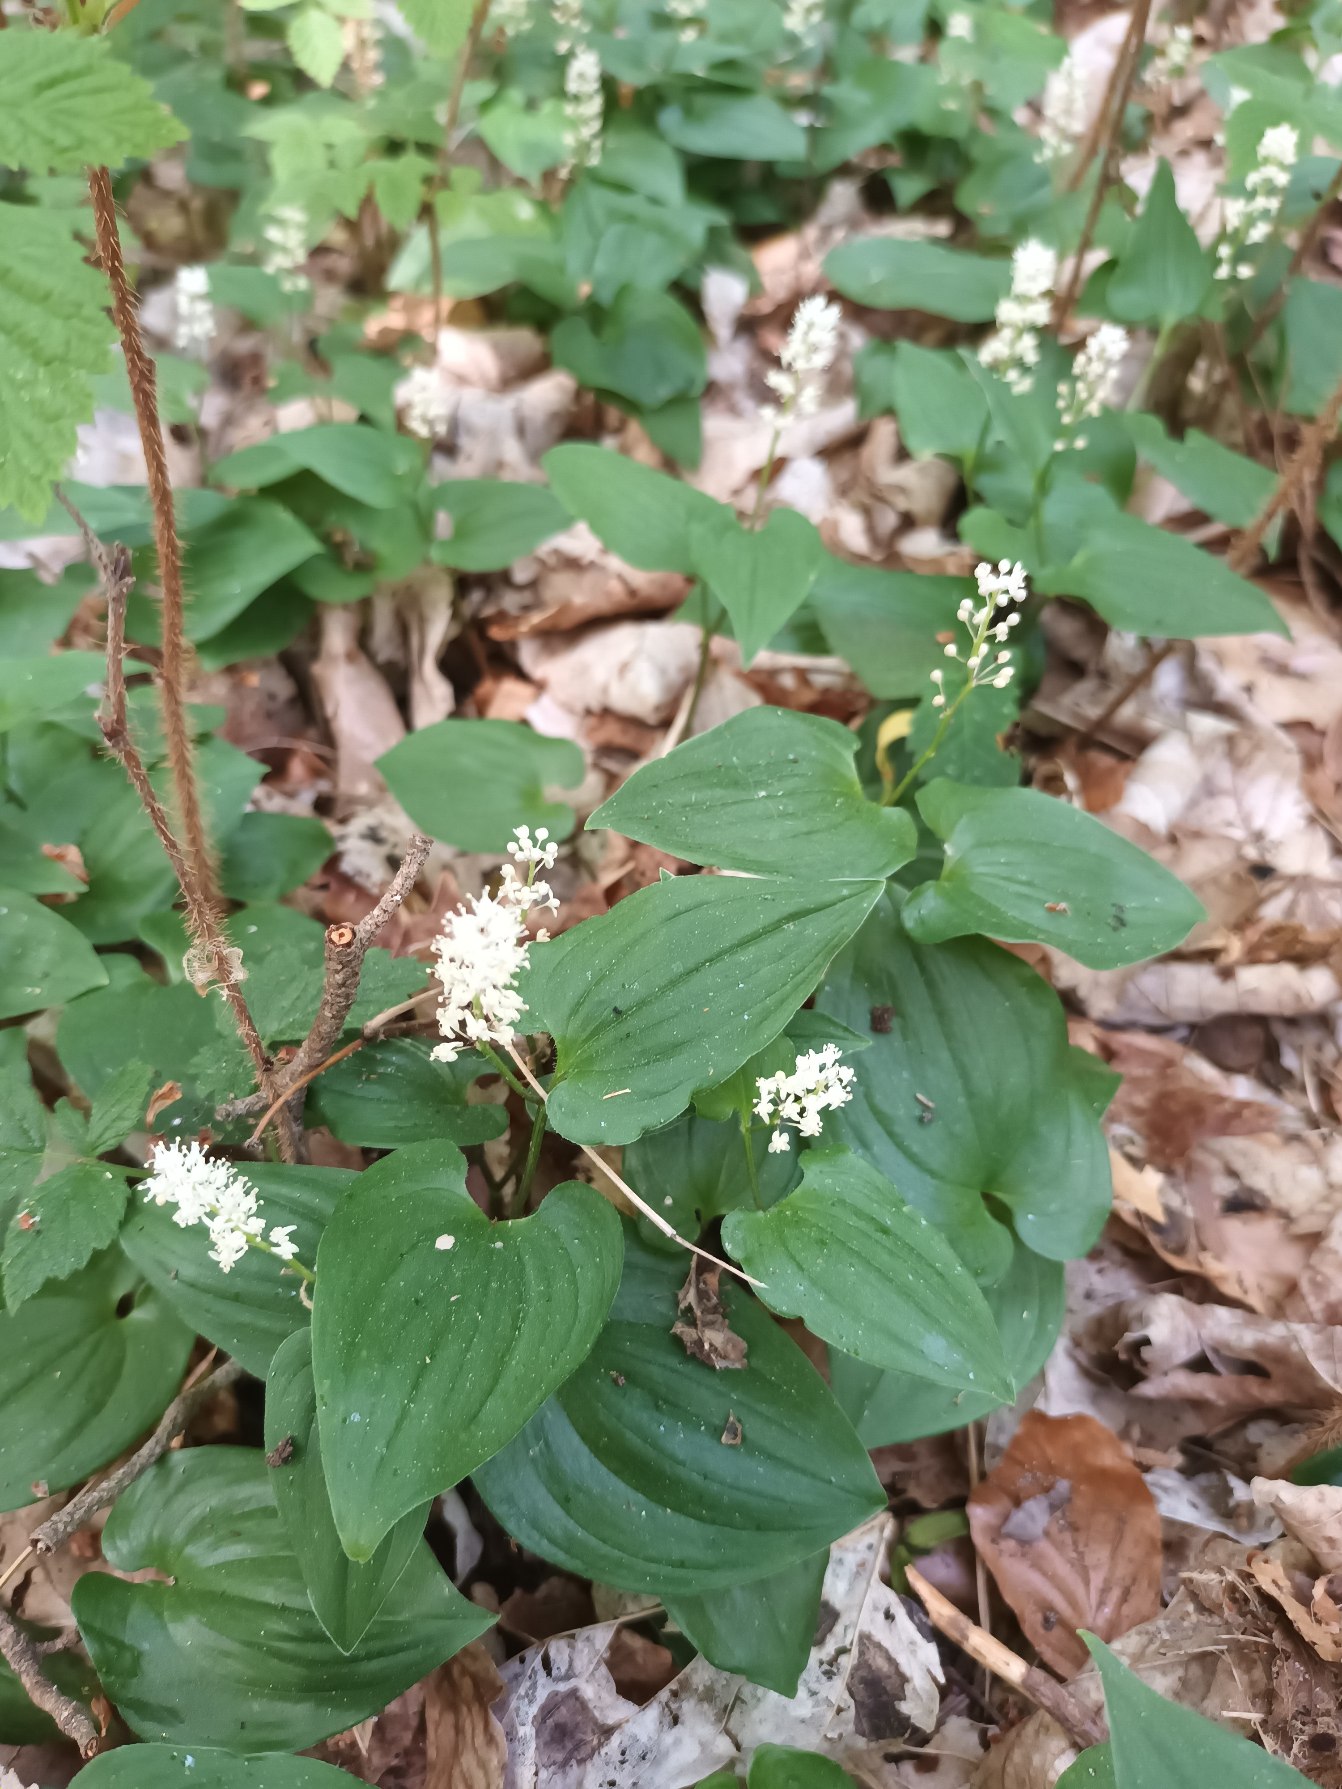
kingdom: Plantae
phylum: Tracheophyta
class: Liliopsida
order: Asparagales
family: Asparagaceae
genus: Maianthemum
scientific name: Maianthemum bifolium
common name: Majblomst
